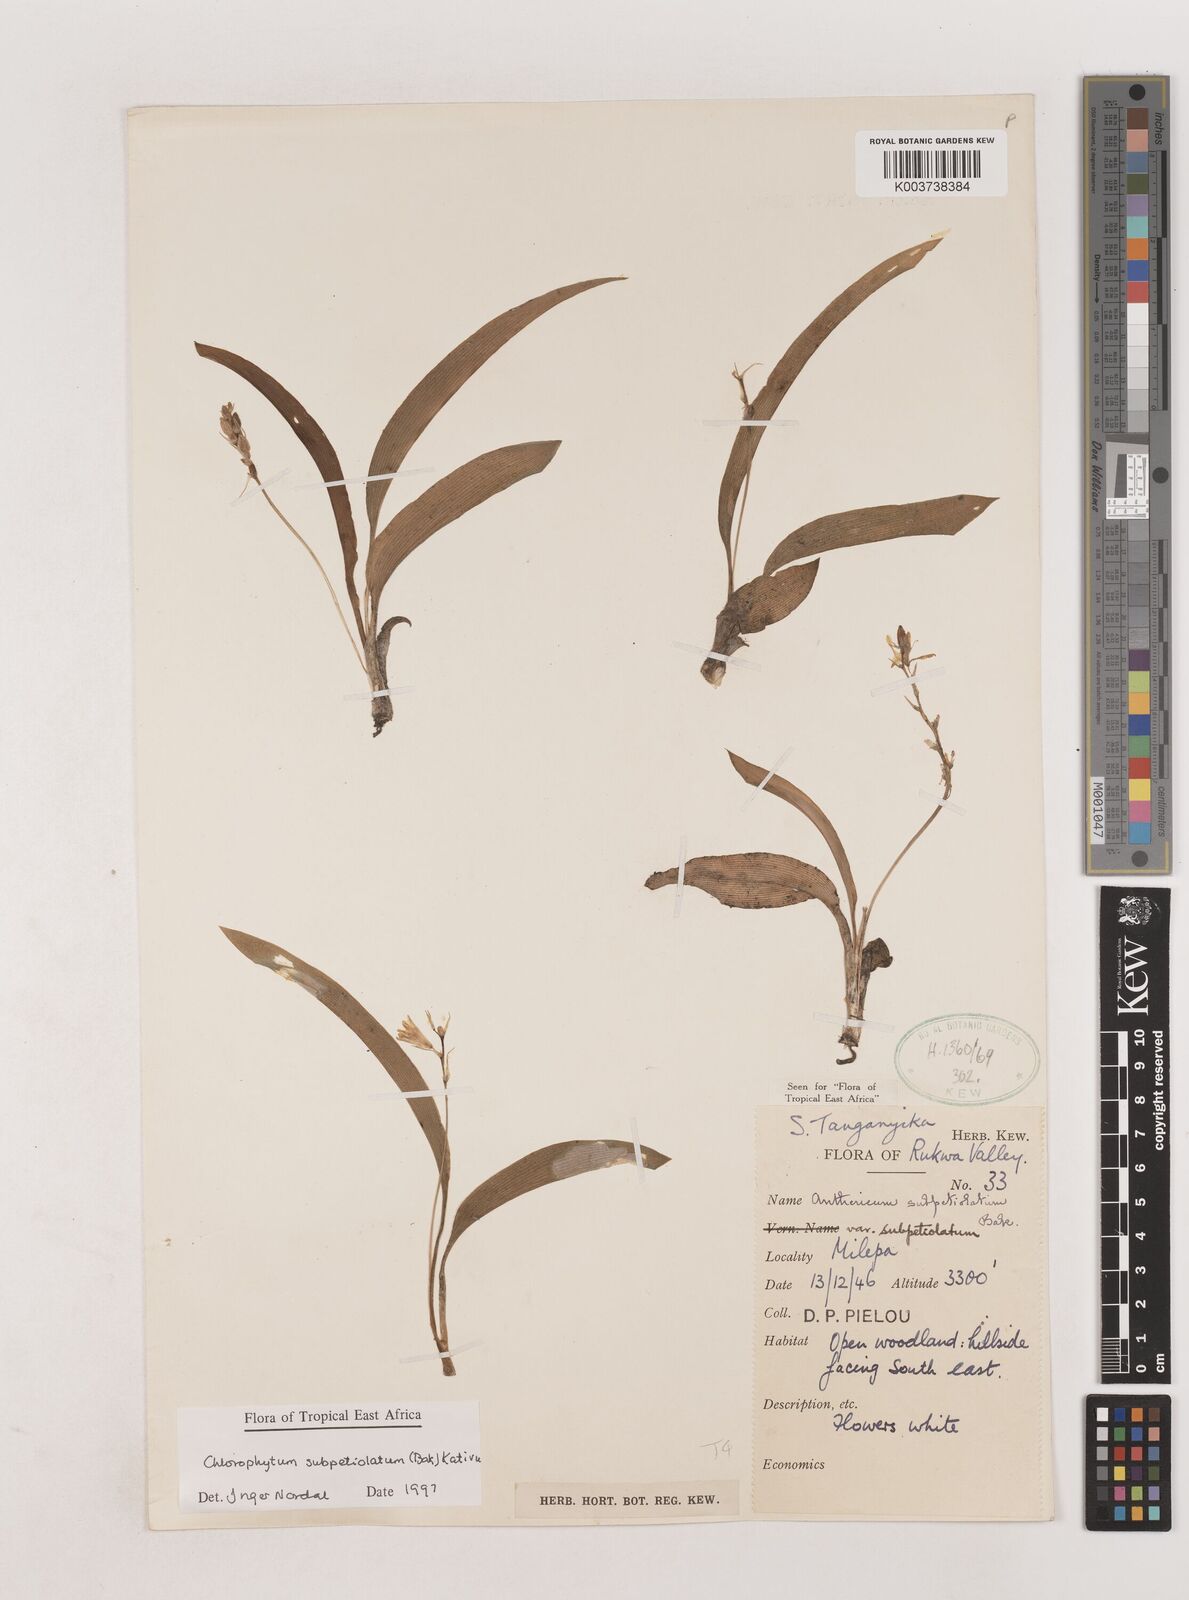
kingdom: Plantae
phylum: Tracheophyta
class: Liliopsida
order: Asparagales
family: Asparagaceae
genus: Chlorophytum
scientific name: Chlorophytum subpetiolatum
